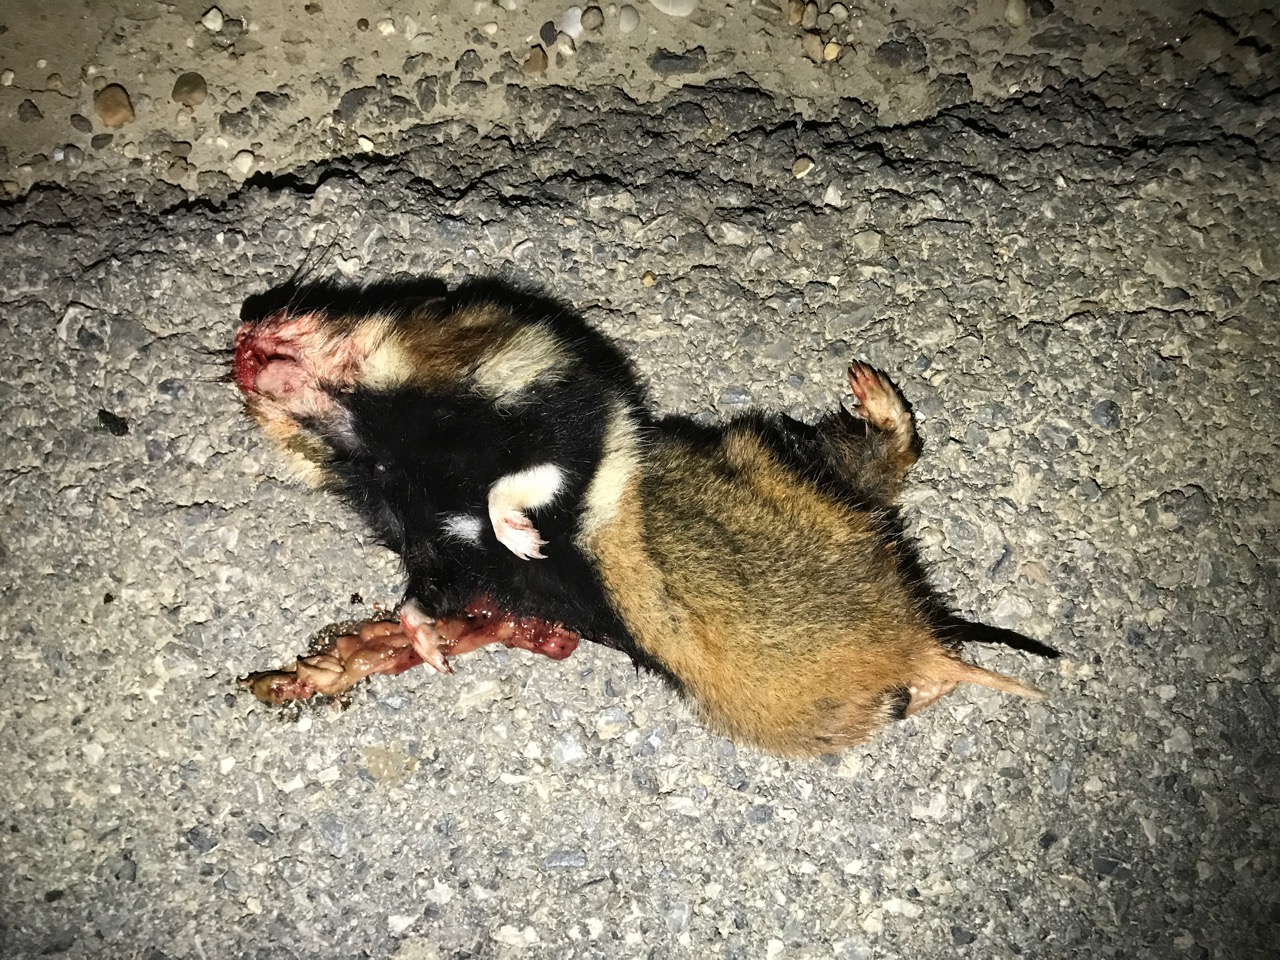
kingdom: Animalia
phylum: Chordata
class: Mammalia
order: Rodentia
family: Cricetidae
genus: Cricetus
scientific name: Cricetus cricetus
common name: Common hamster
